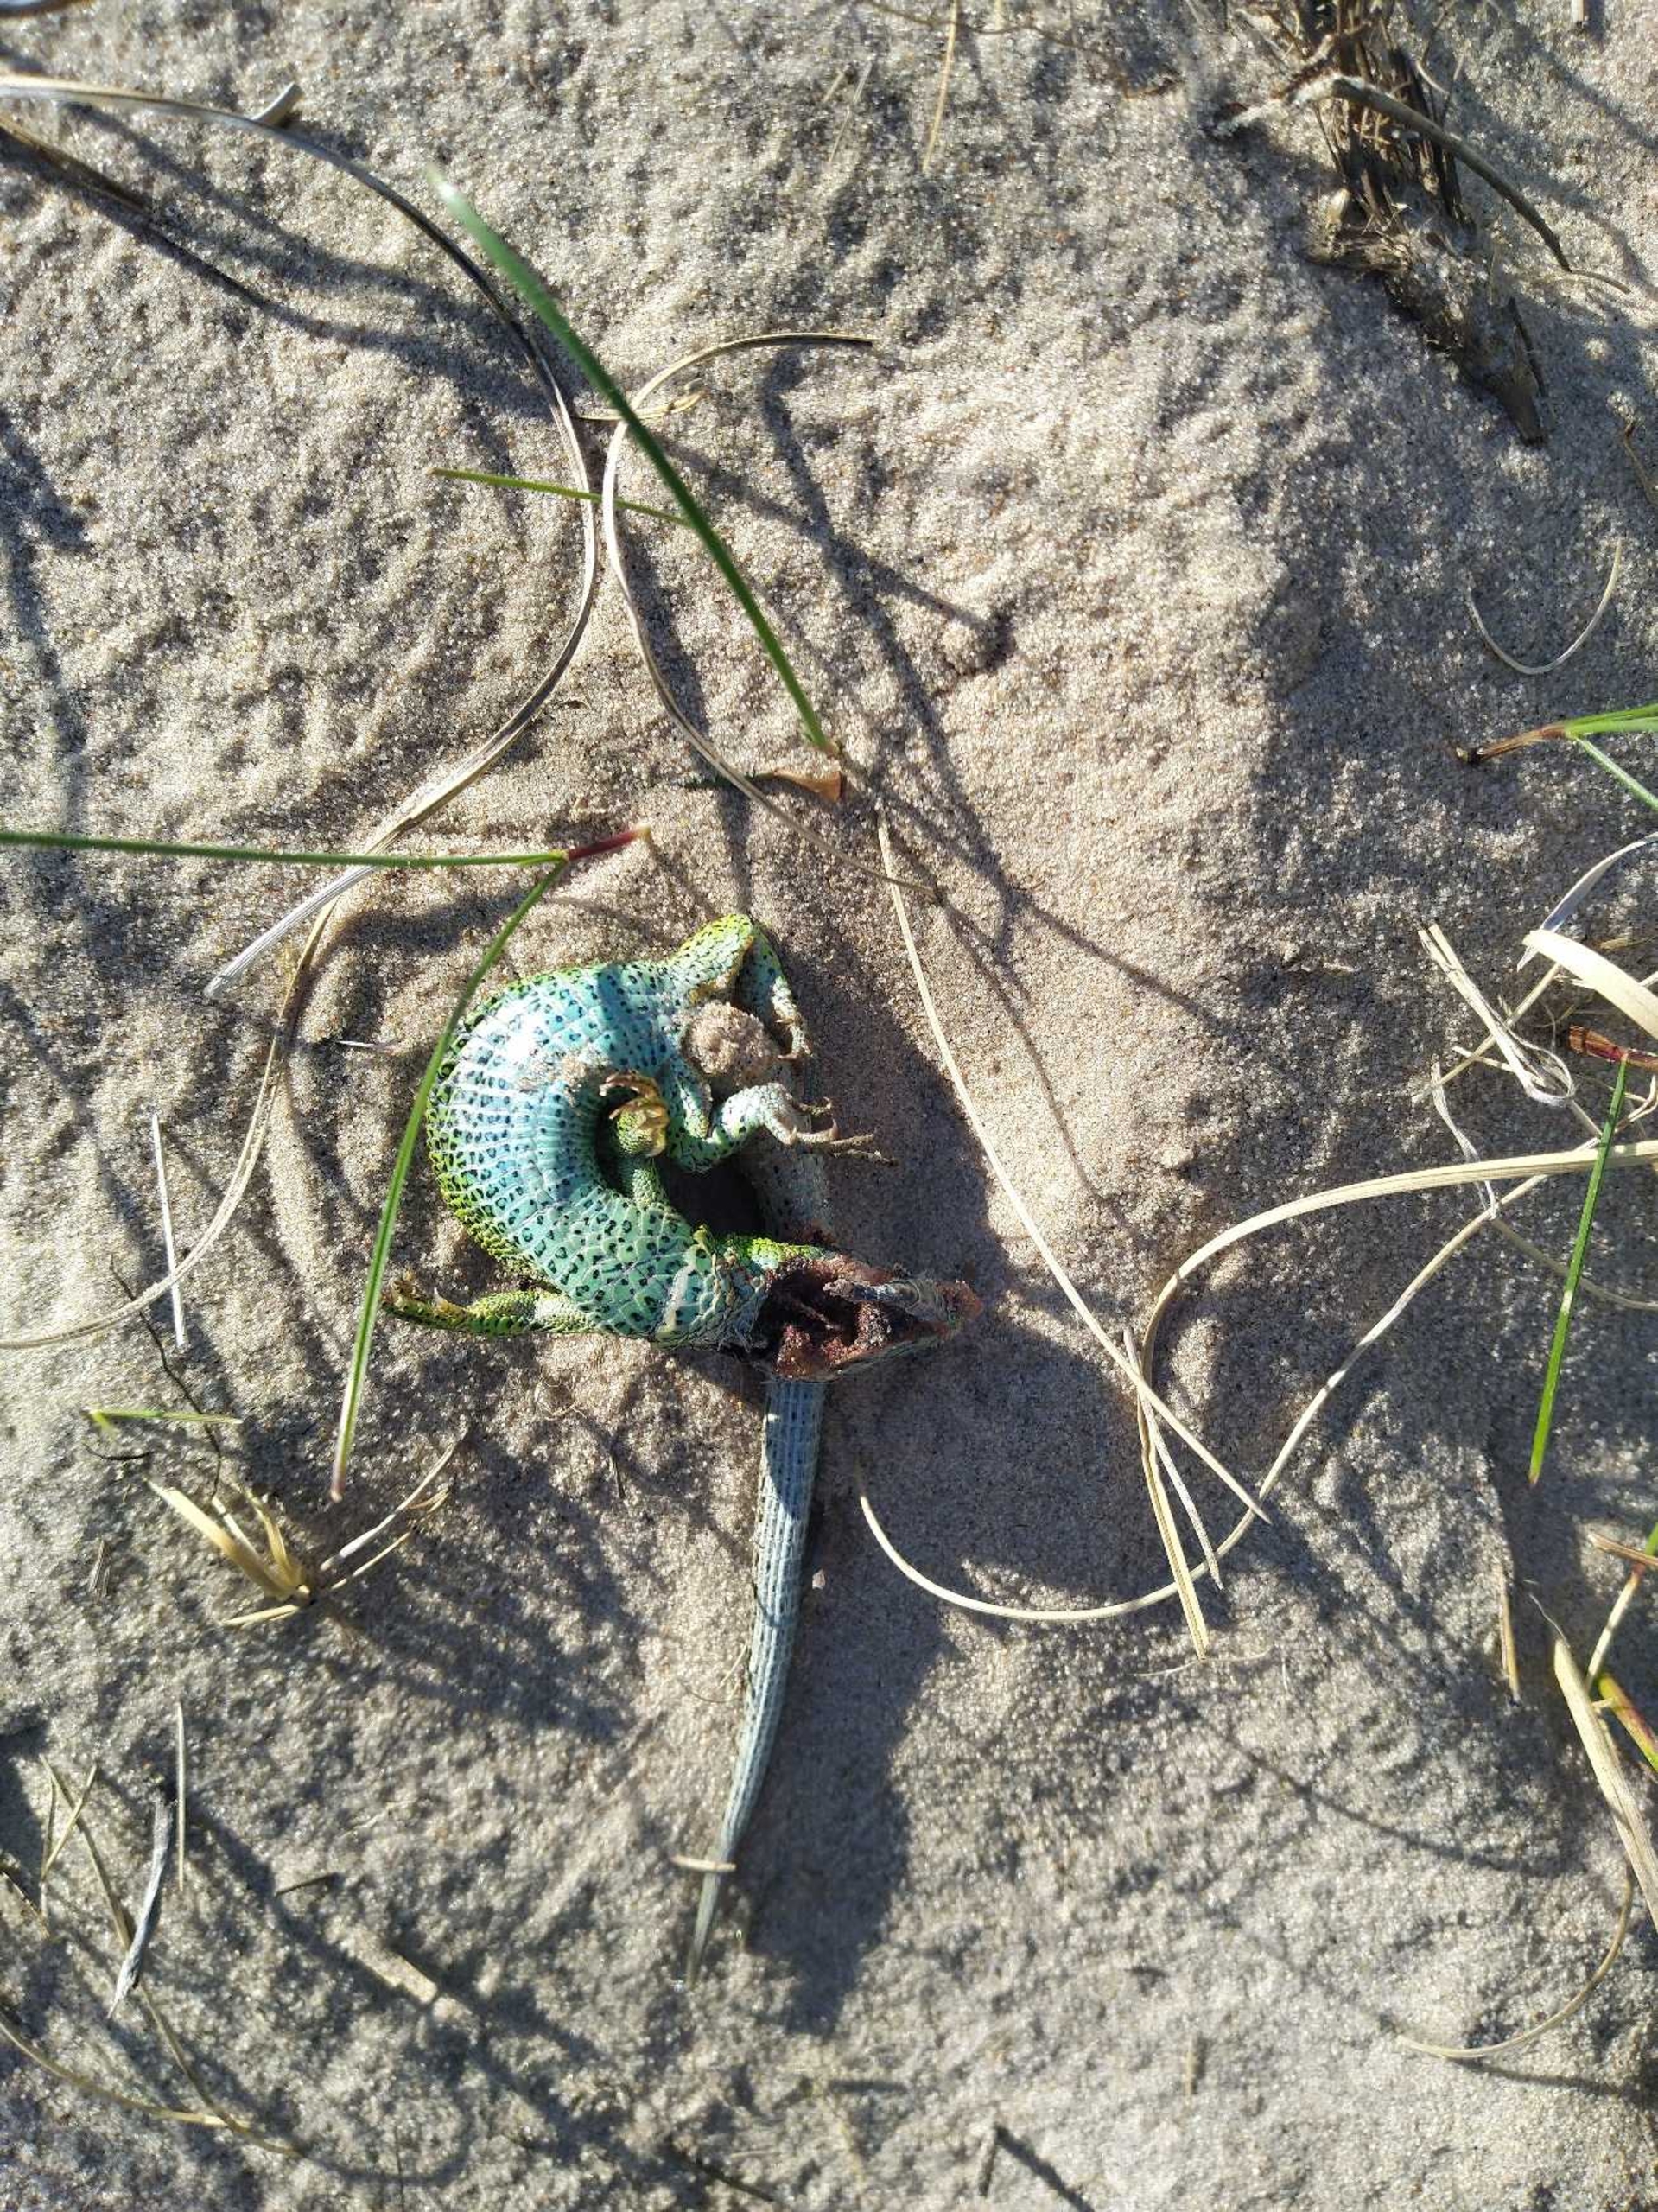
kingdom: Animalia
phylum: Chordata
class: Squamata
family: Lacertidae
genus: Lacerta
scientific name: Lacerta agilis
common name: Markfirben
